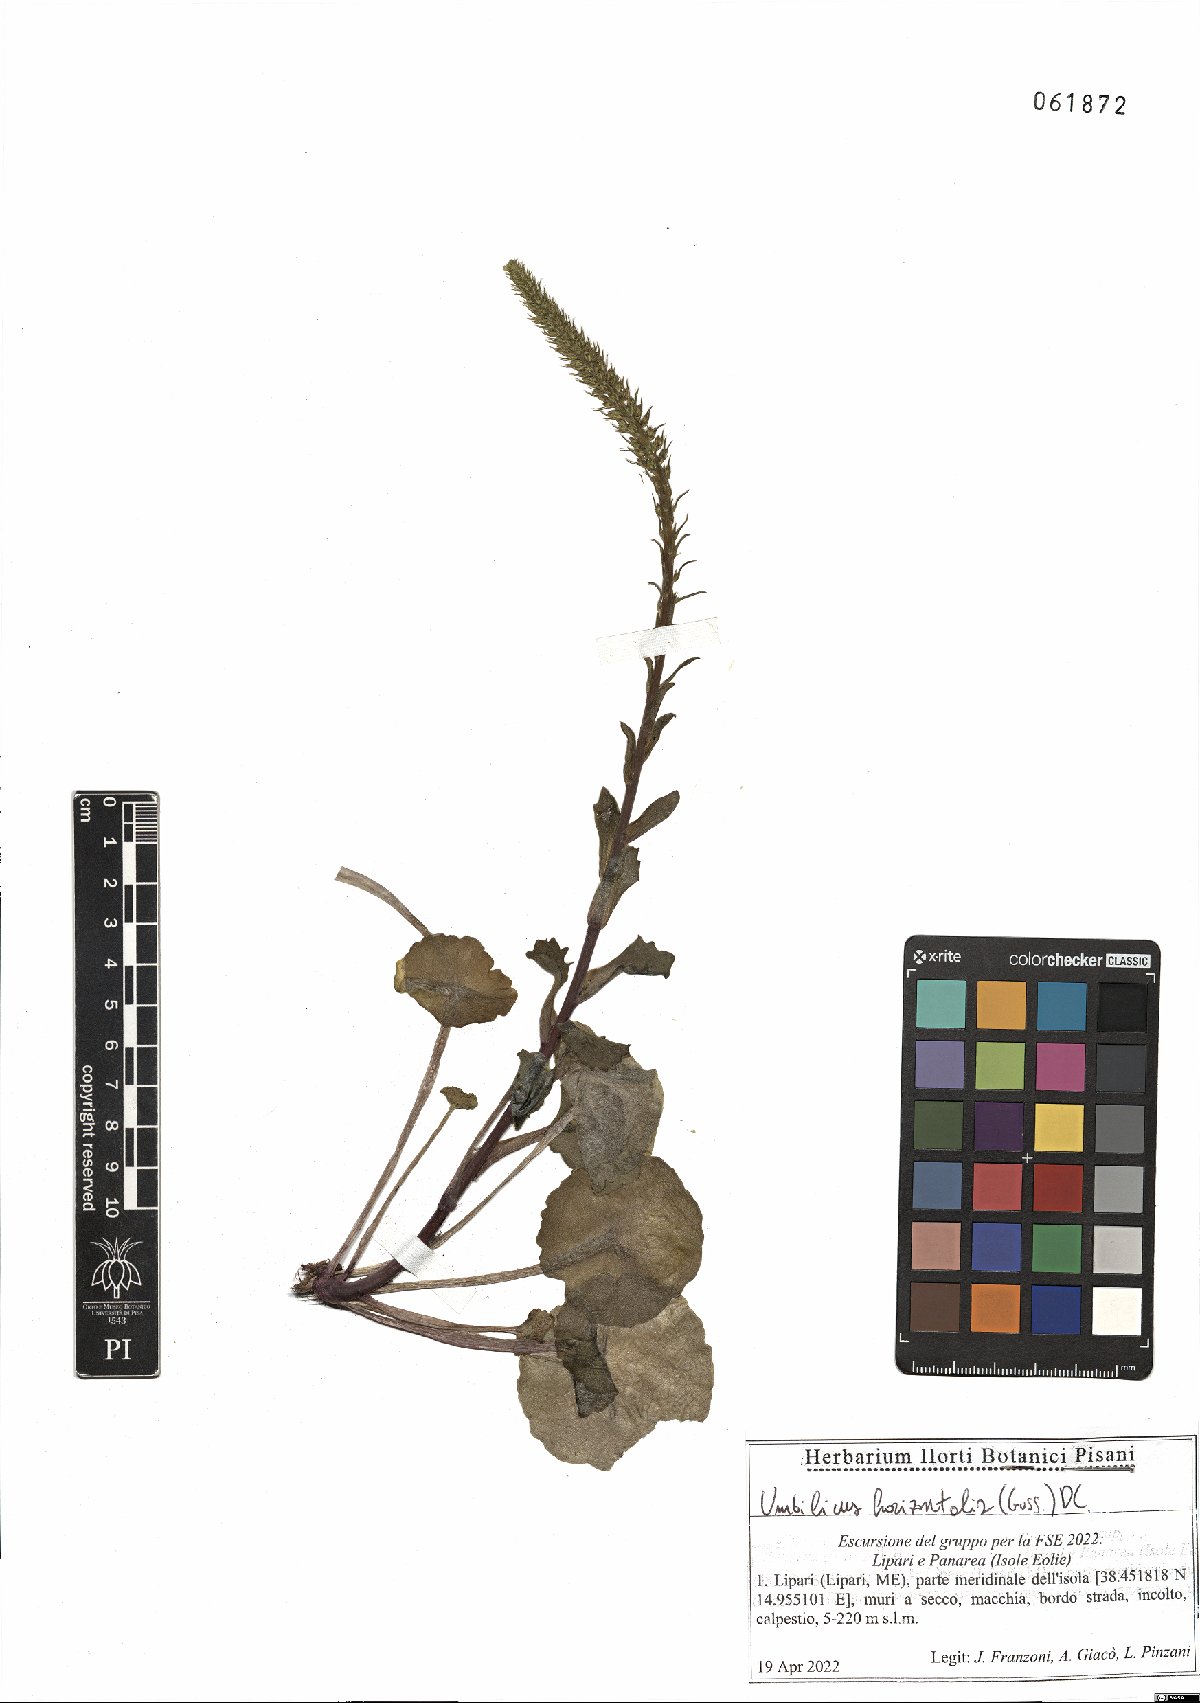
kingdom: Plantae
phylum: Tracheophyta
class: Magnoliopsida
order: Saxifragales
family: Crassulaceae
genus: Umbilicus
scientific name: Umbilicus horizontalis
